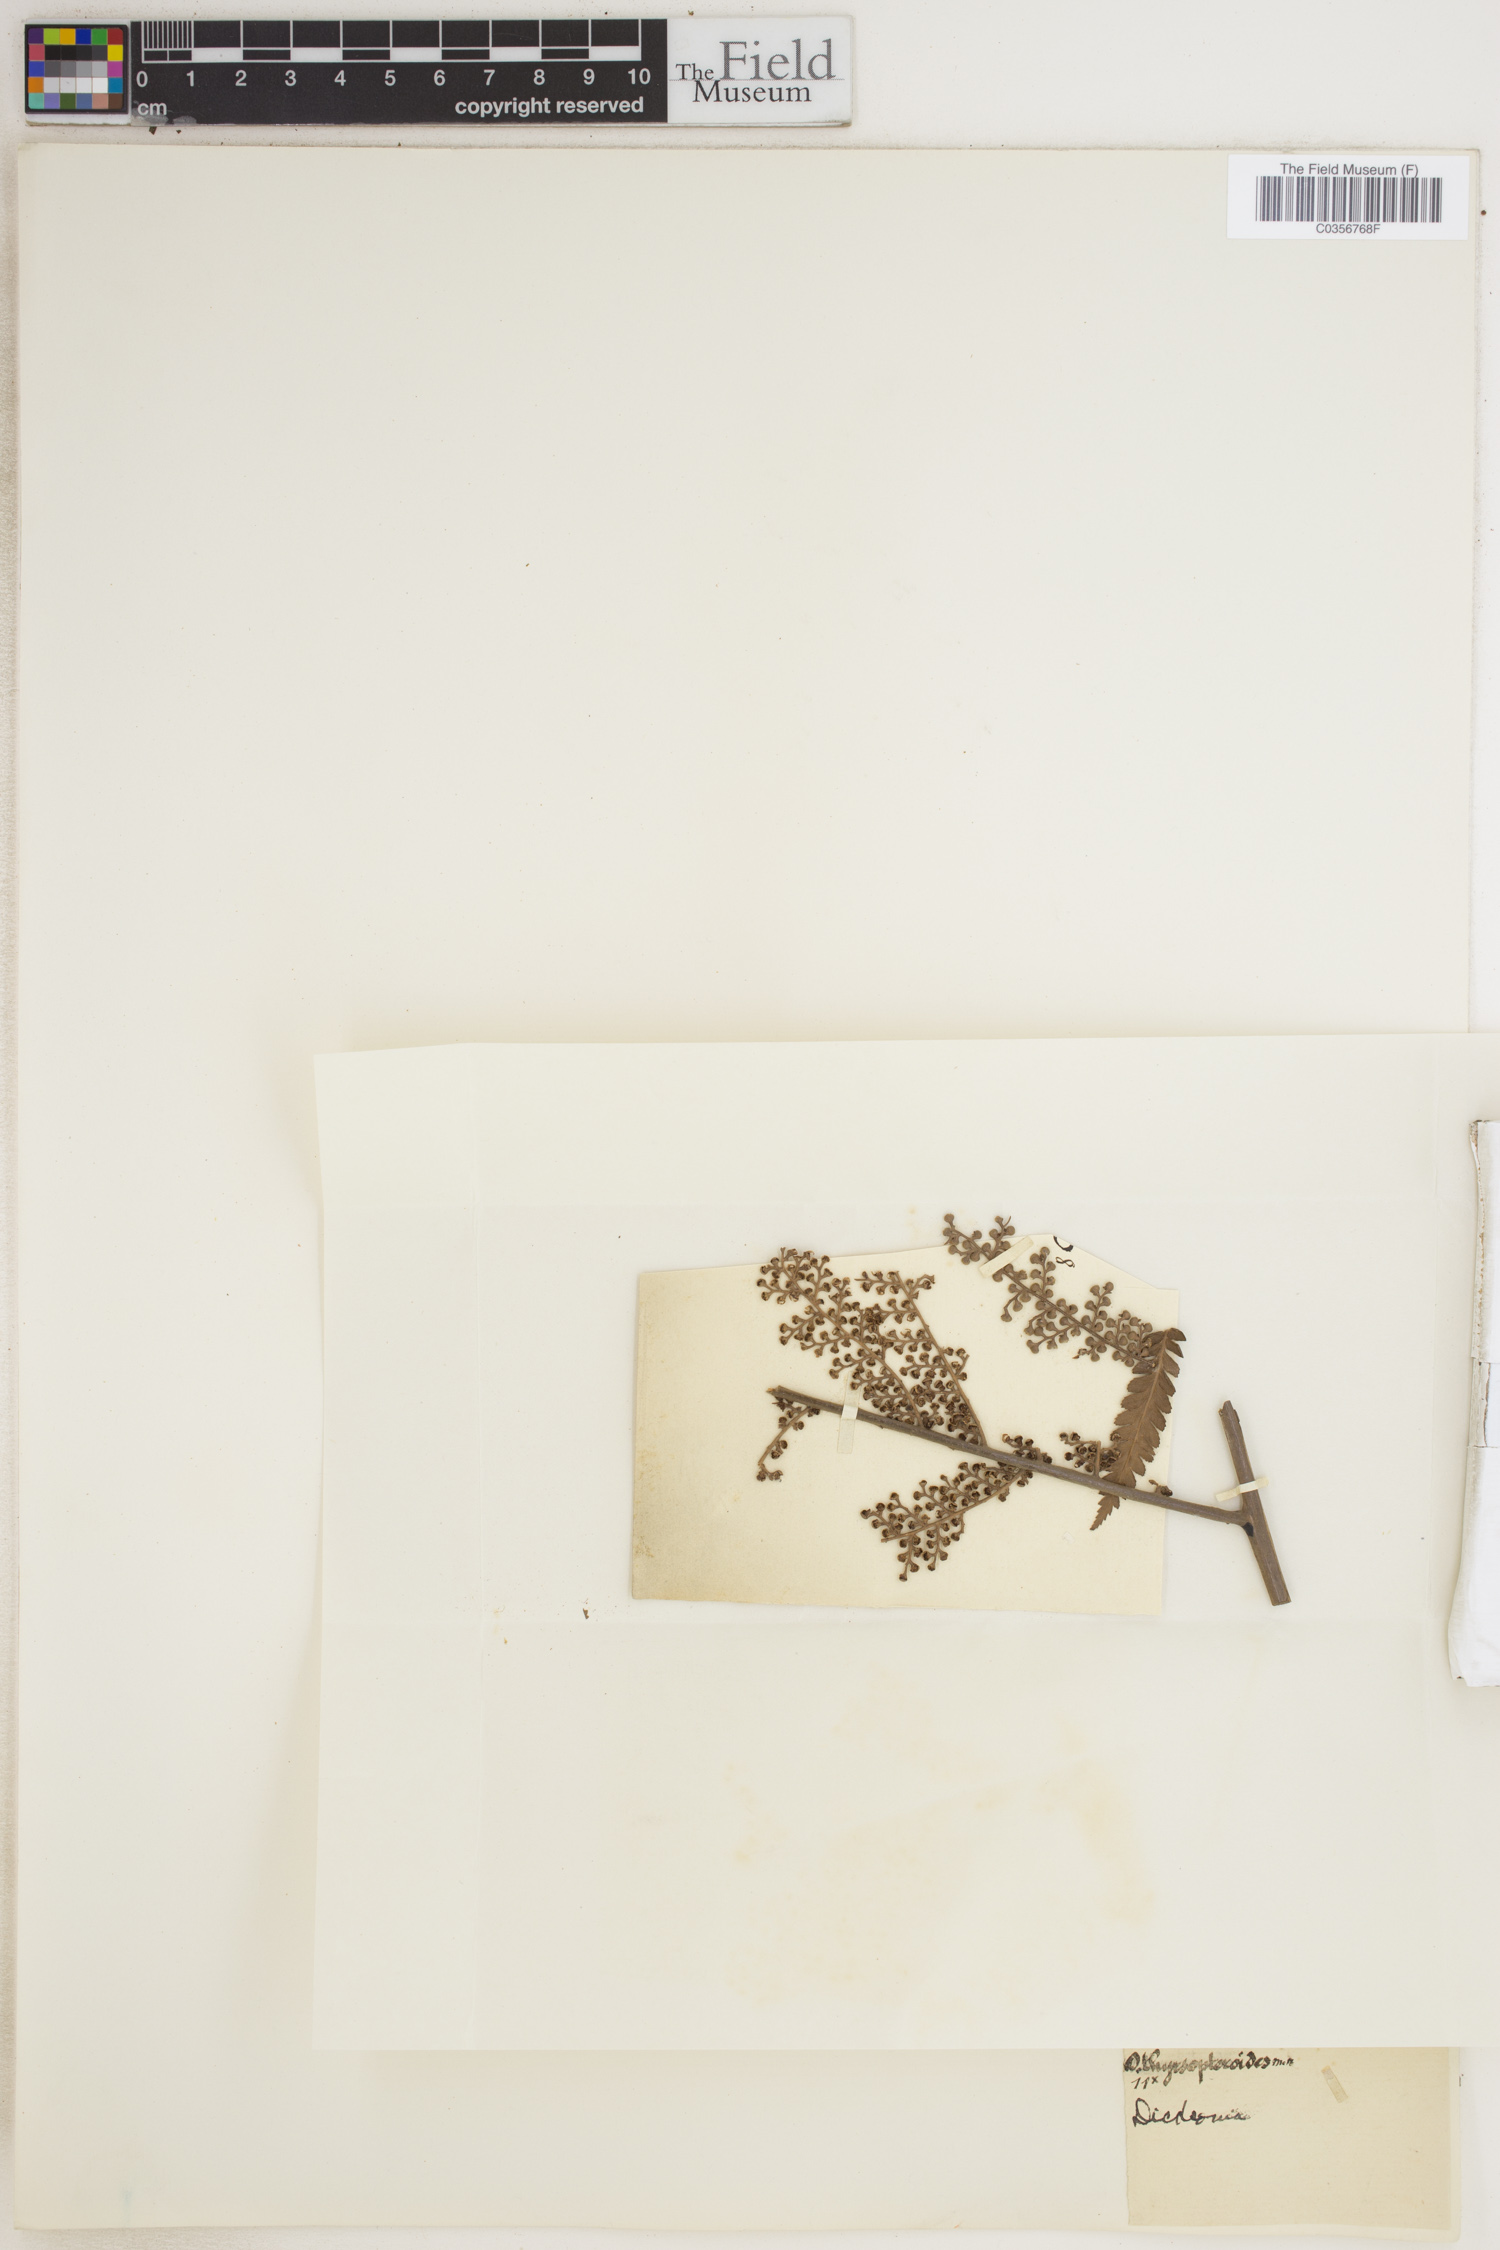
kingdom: Plantae
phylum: Tracheophyta
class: Polypodiopsida
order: Cyatheales
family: Dicksoniaceae
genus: Dicksonia
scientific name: Dicksonia thyrsopteroides
